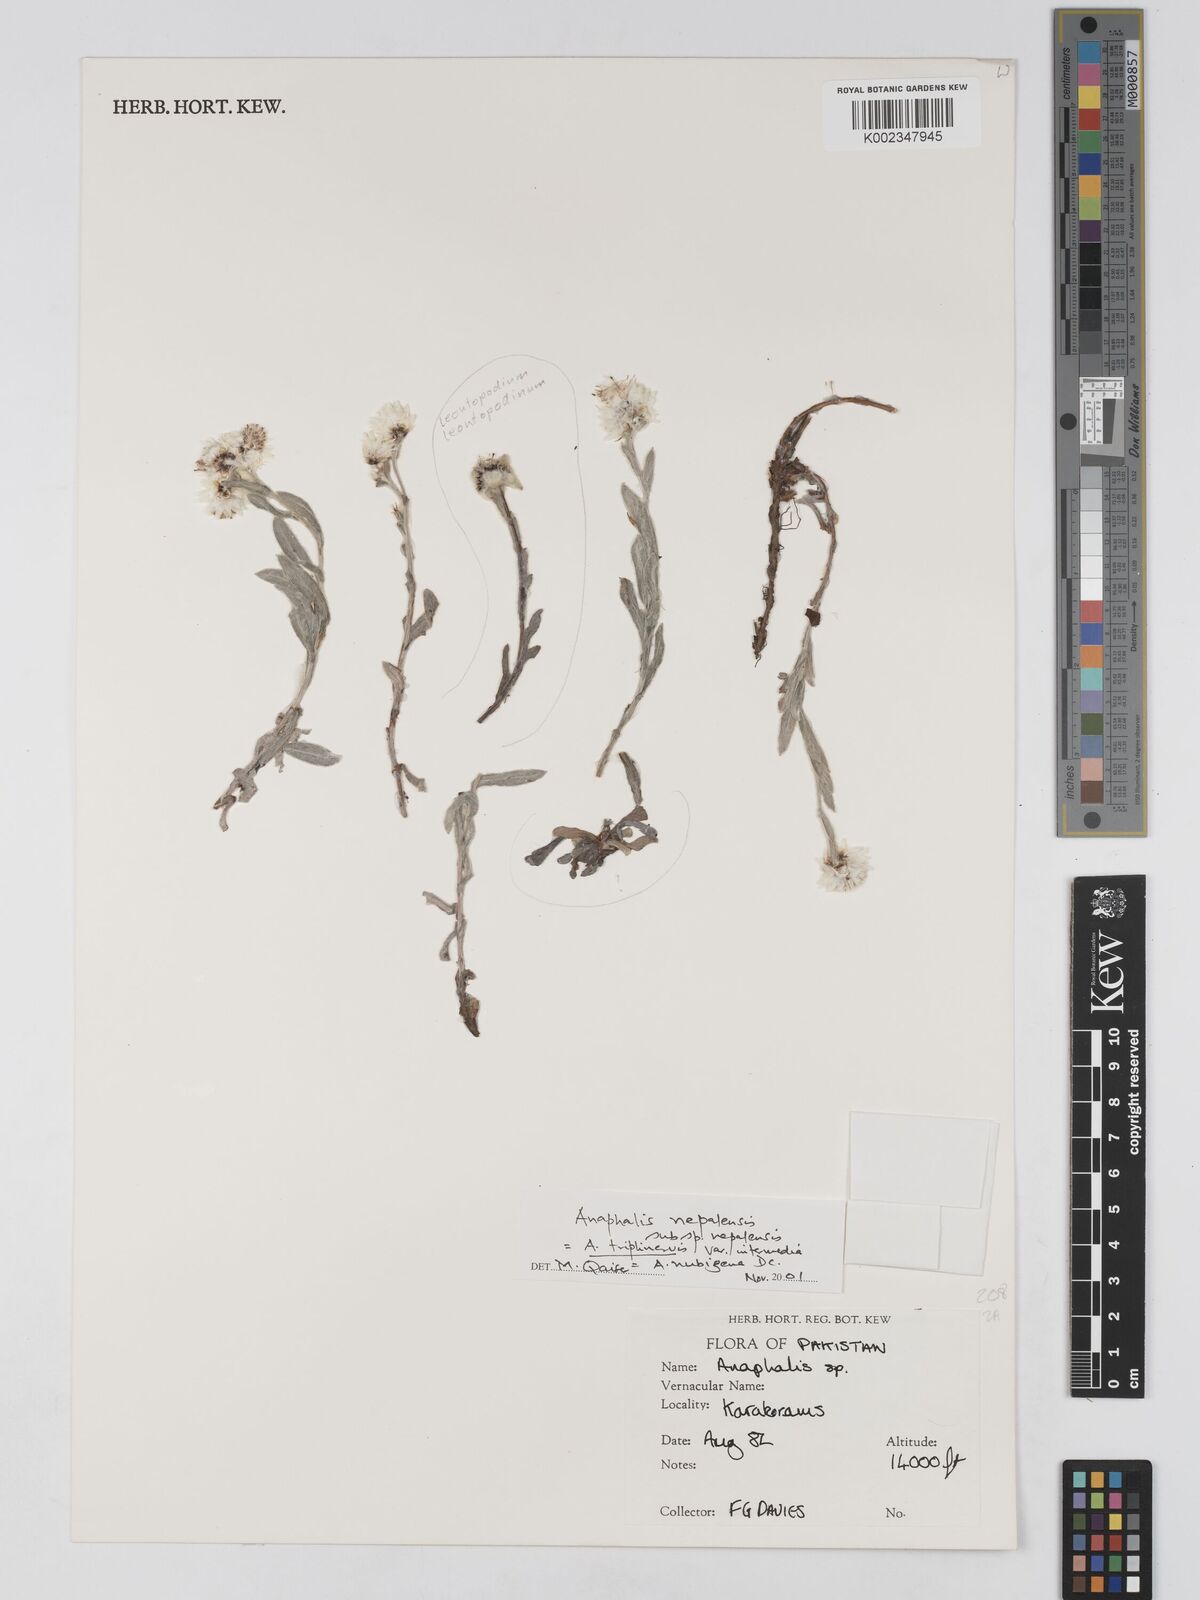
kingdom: Plantae
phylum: Tracheophyta
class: Magnoliopsida
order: Asterales
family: Asteraceae
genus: Anaphalis
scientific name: Anaphalis leptophylla
